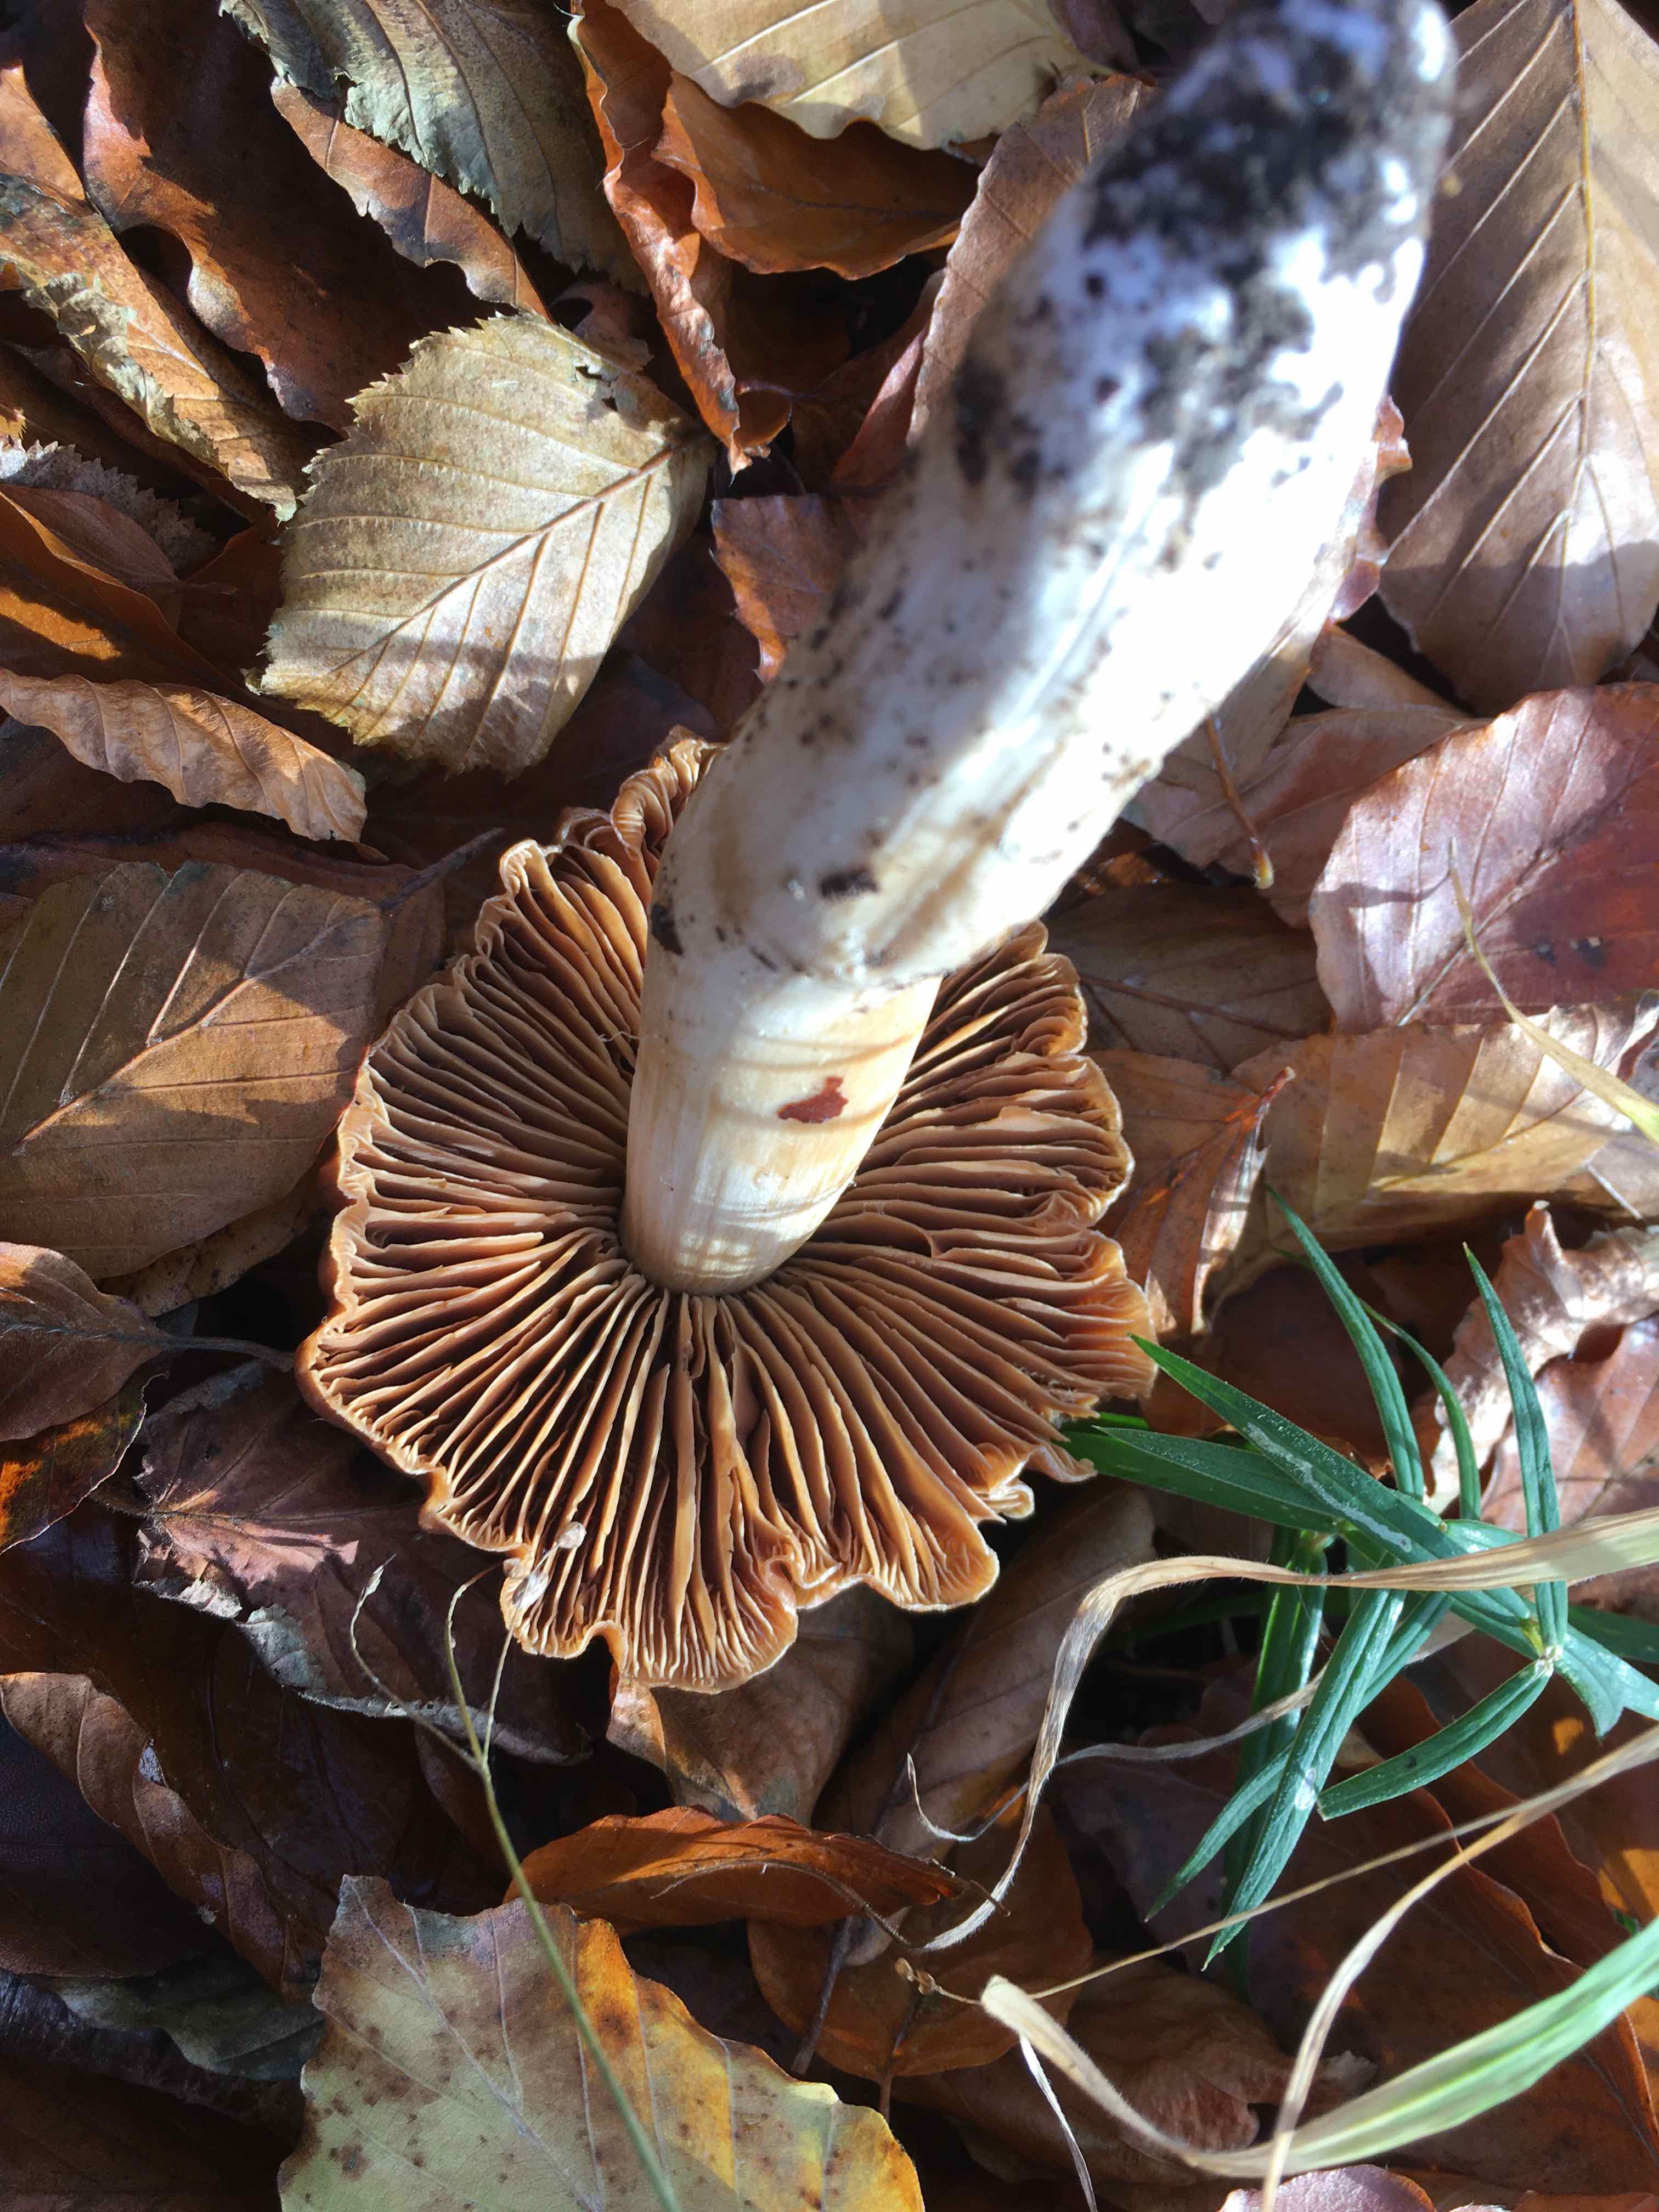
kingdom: Fungi
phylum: Basidiomycota
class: Agaricomycetes
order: Agaricales
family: Cortinariaceae
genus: Cortinarius
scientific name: Cortinarius
